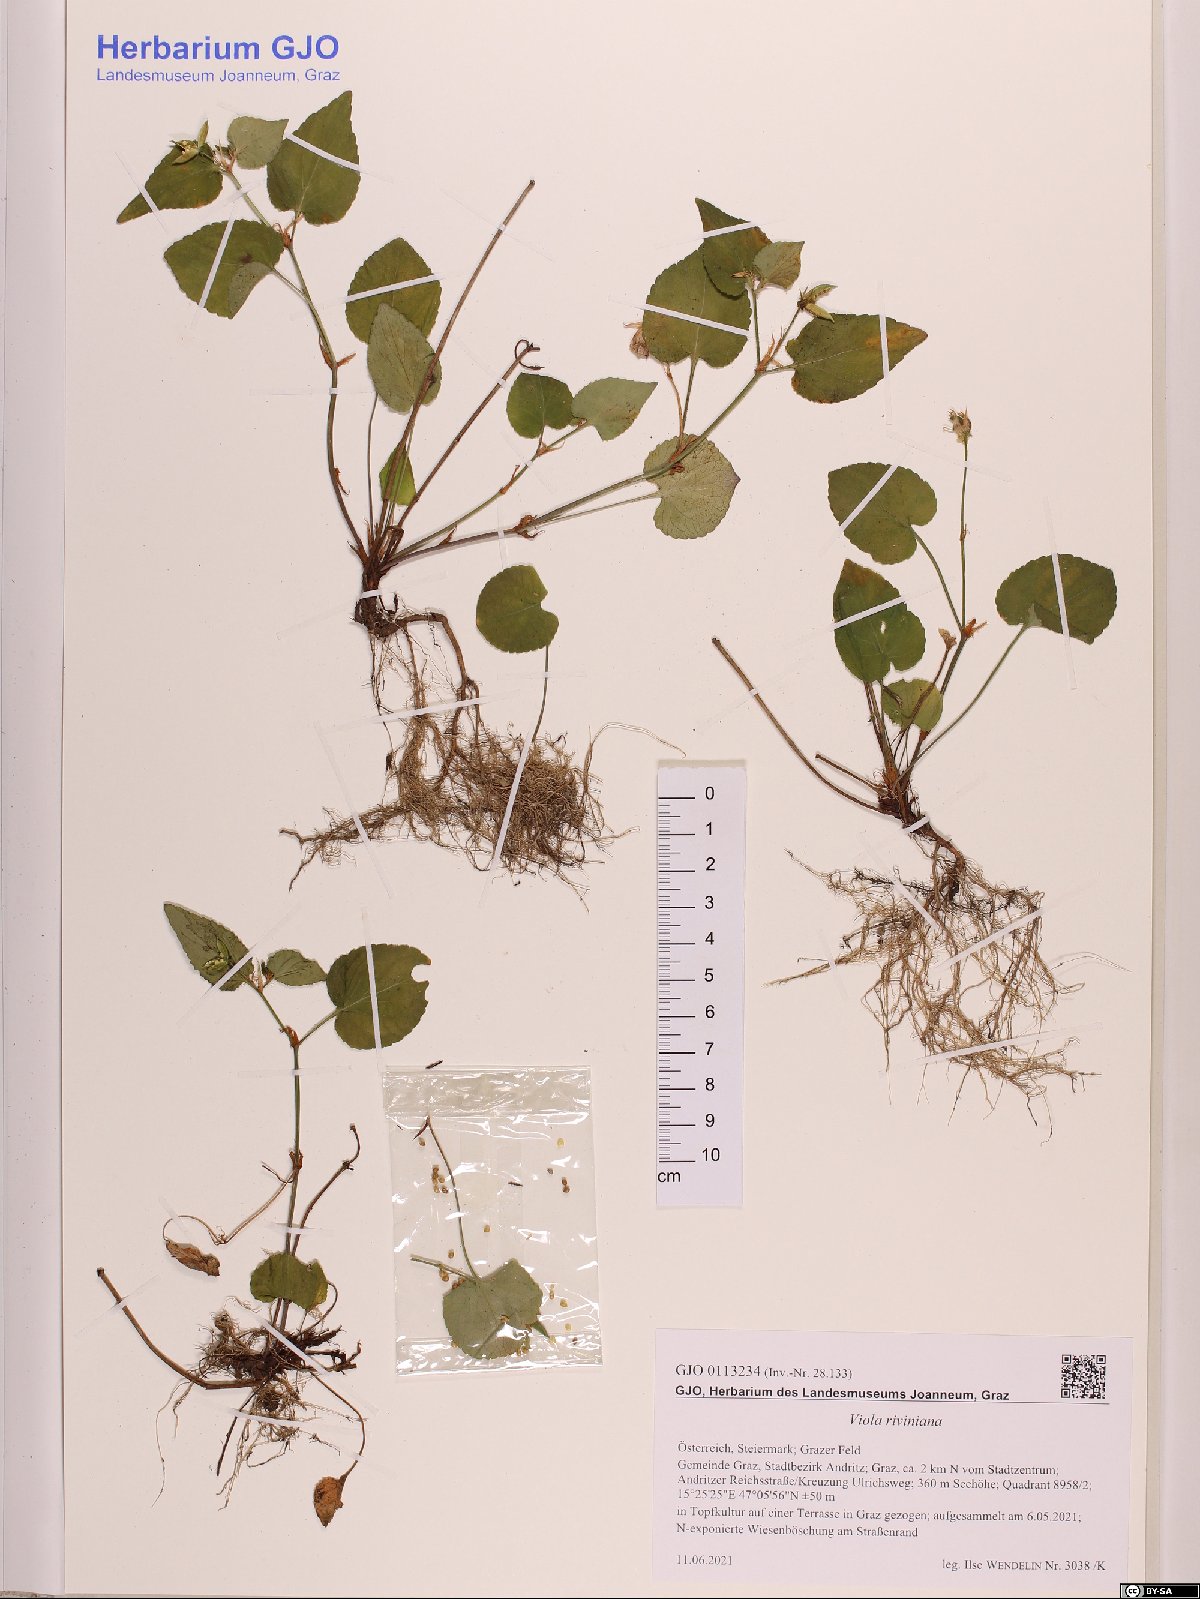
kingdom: Plantae
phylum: Tracheophyta
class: Magnoliopsida
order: Malpighiales
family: Violaceae
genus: Viola
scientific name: Viola riviniana
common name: Common dog-violet
